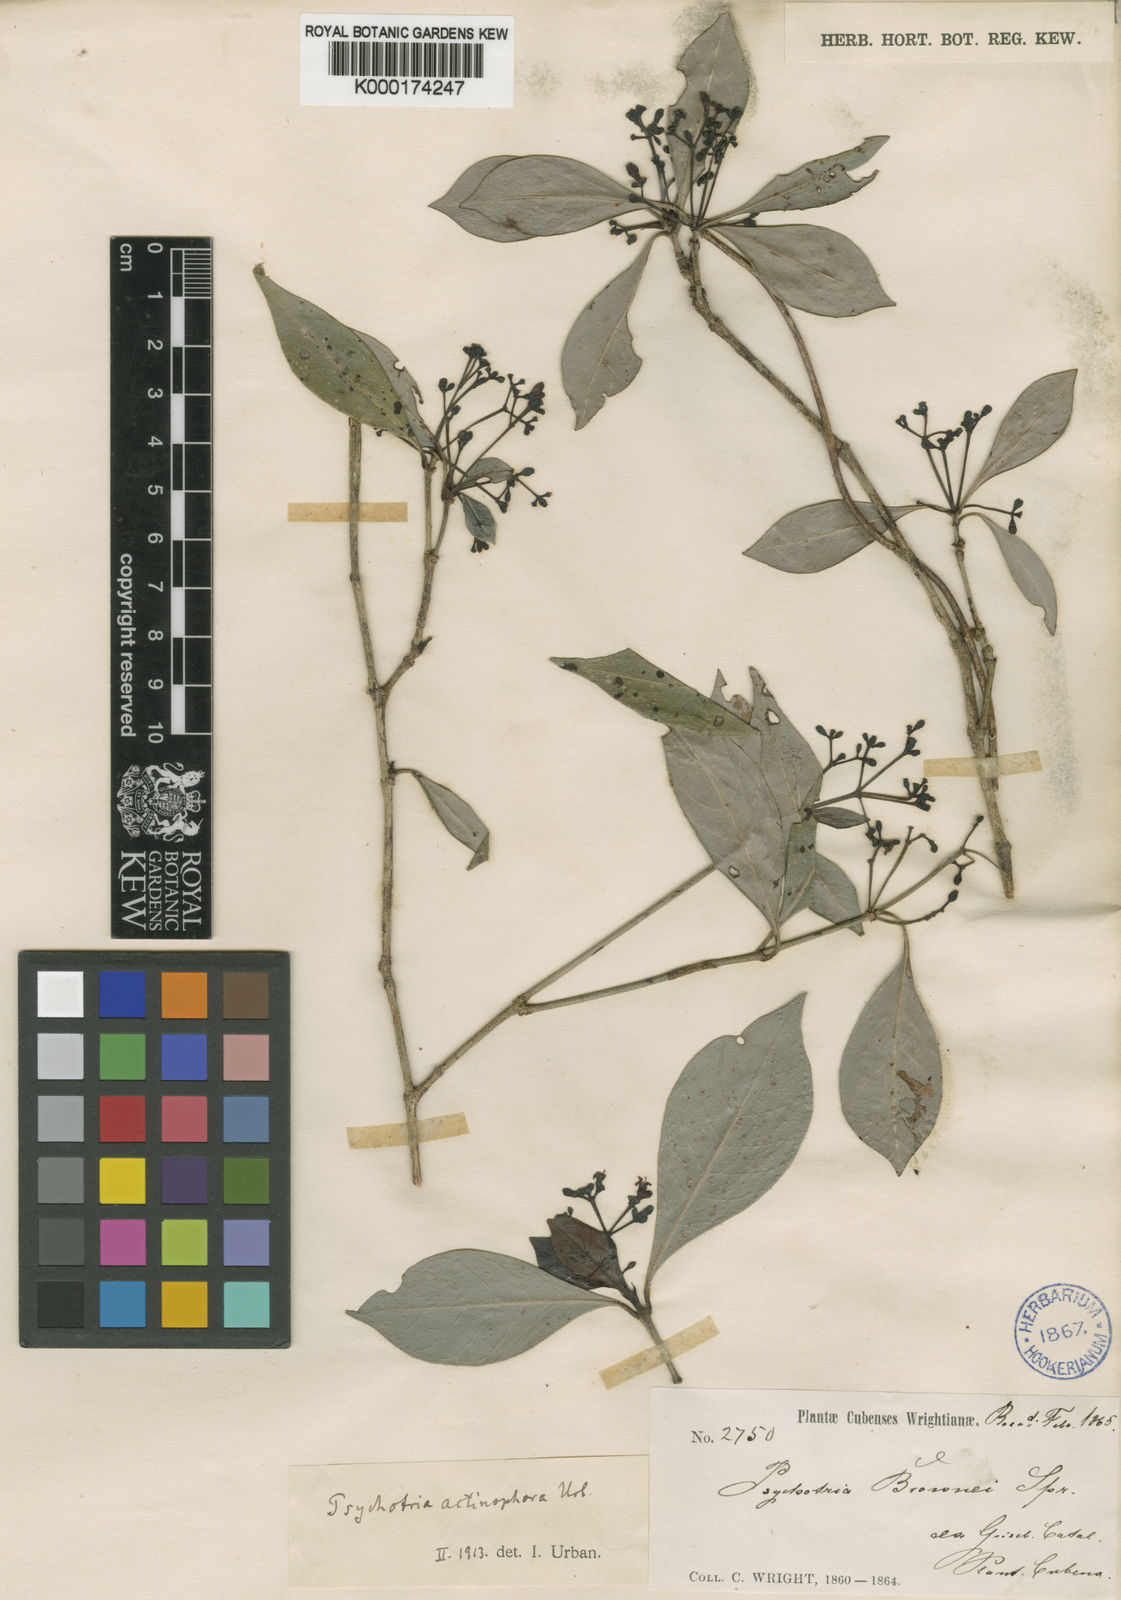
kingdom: Plantae
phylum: Tracheophyta
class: Magnoliopsida
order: Gentianales
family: Rubiaceae
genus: Psychotria
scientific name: Psychotria obovalis
